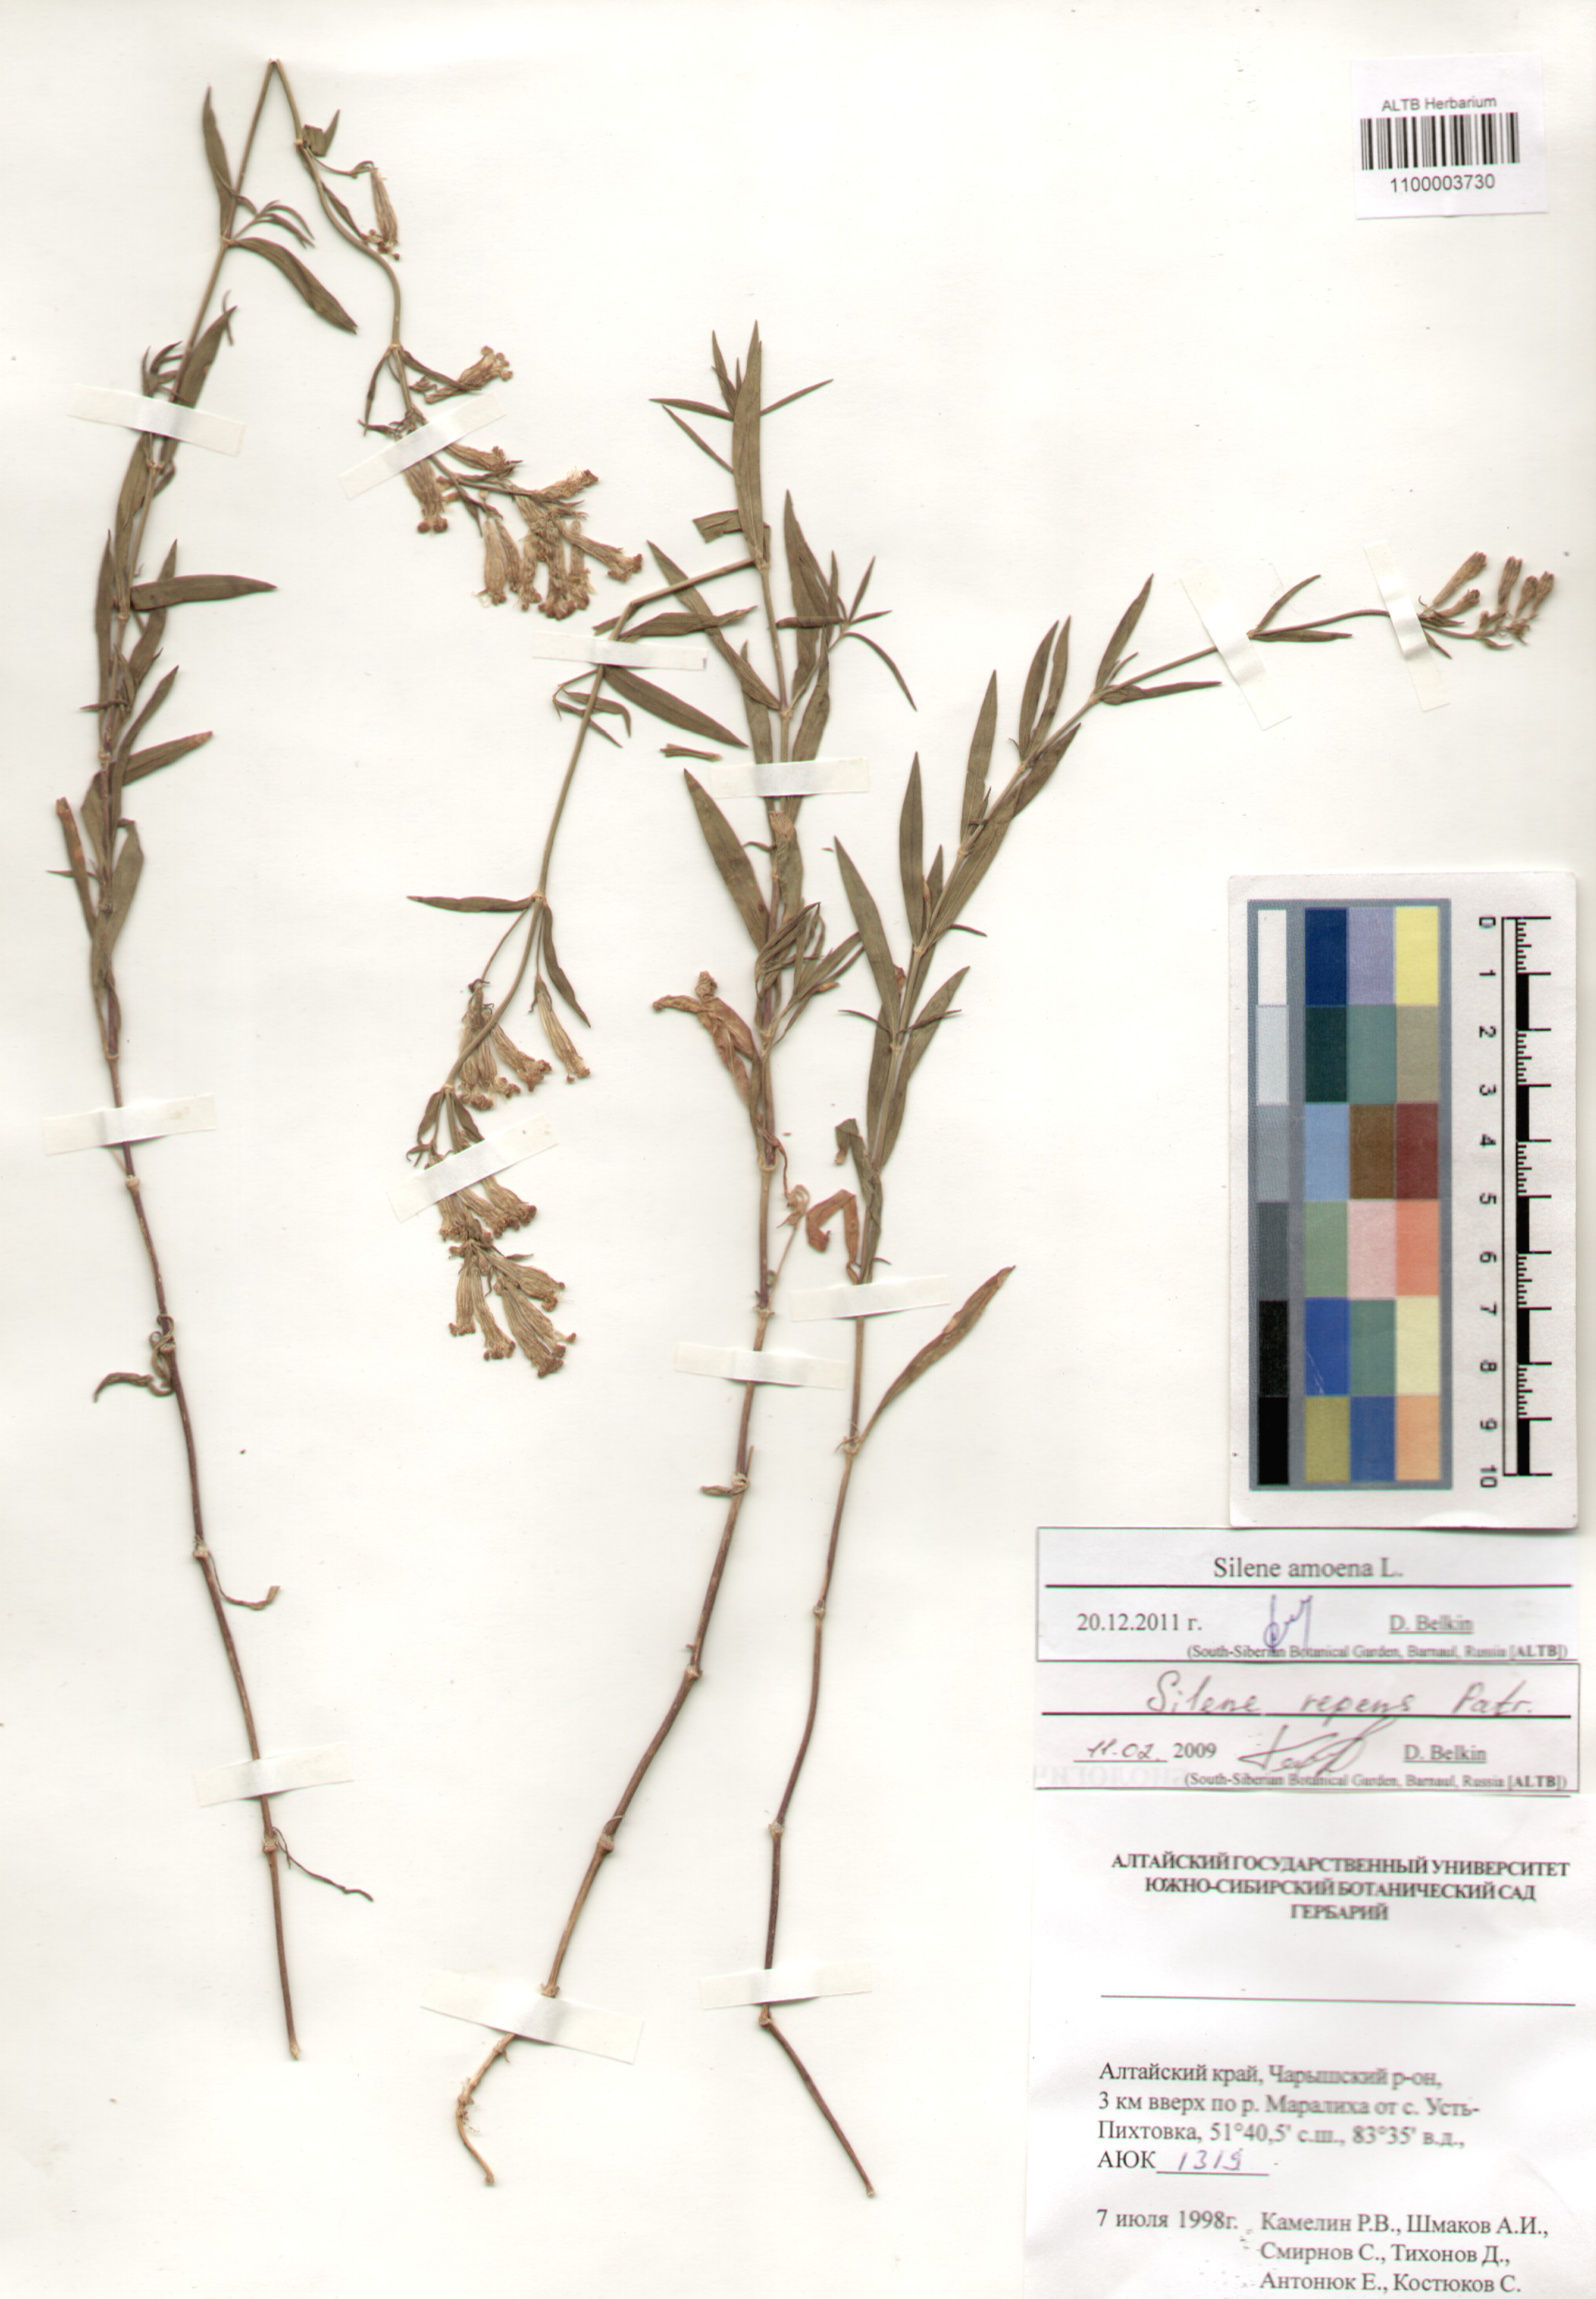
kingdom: Plantae
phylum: Tracheophyta
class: Magnoliopsida
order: Caryophyllales
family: Caryophyllaceae
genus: Silene
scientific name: Silene amoena
